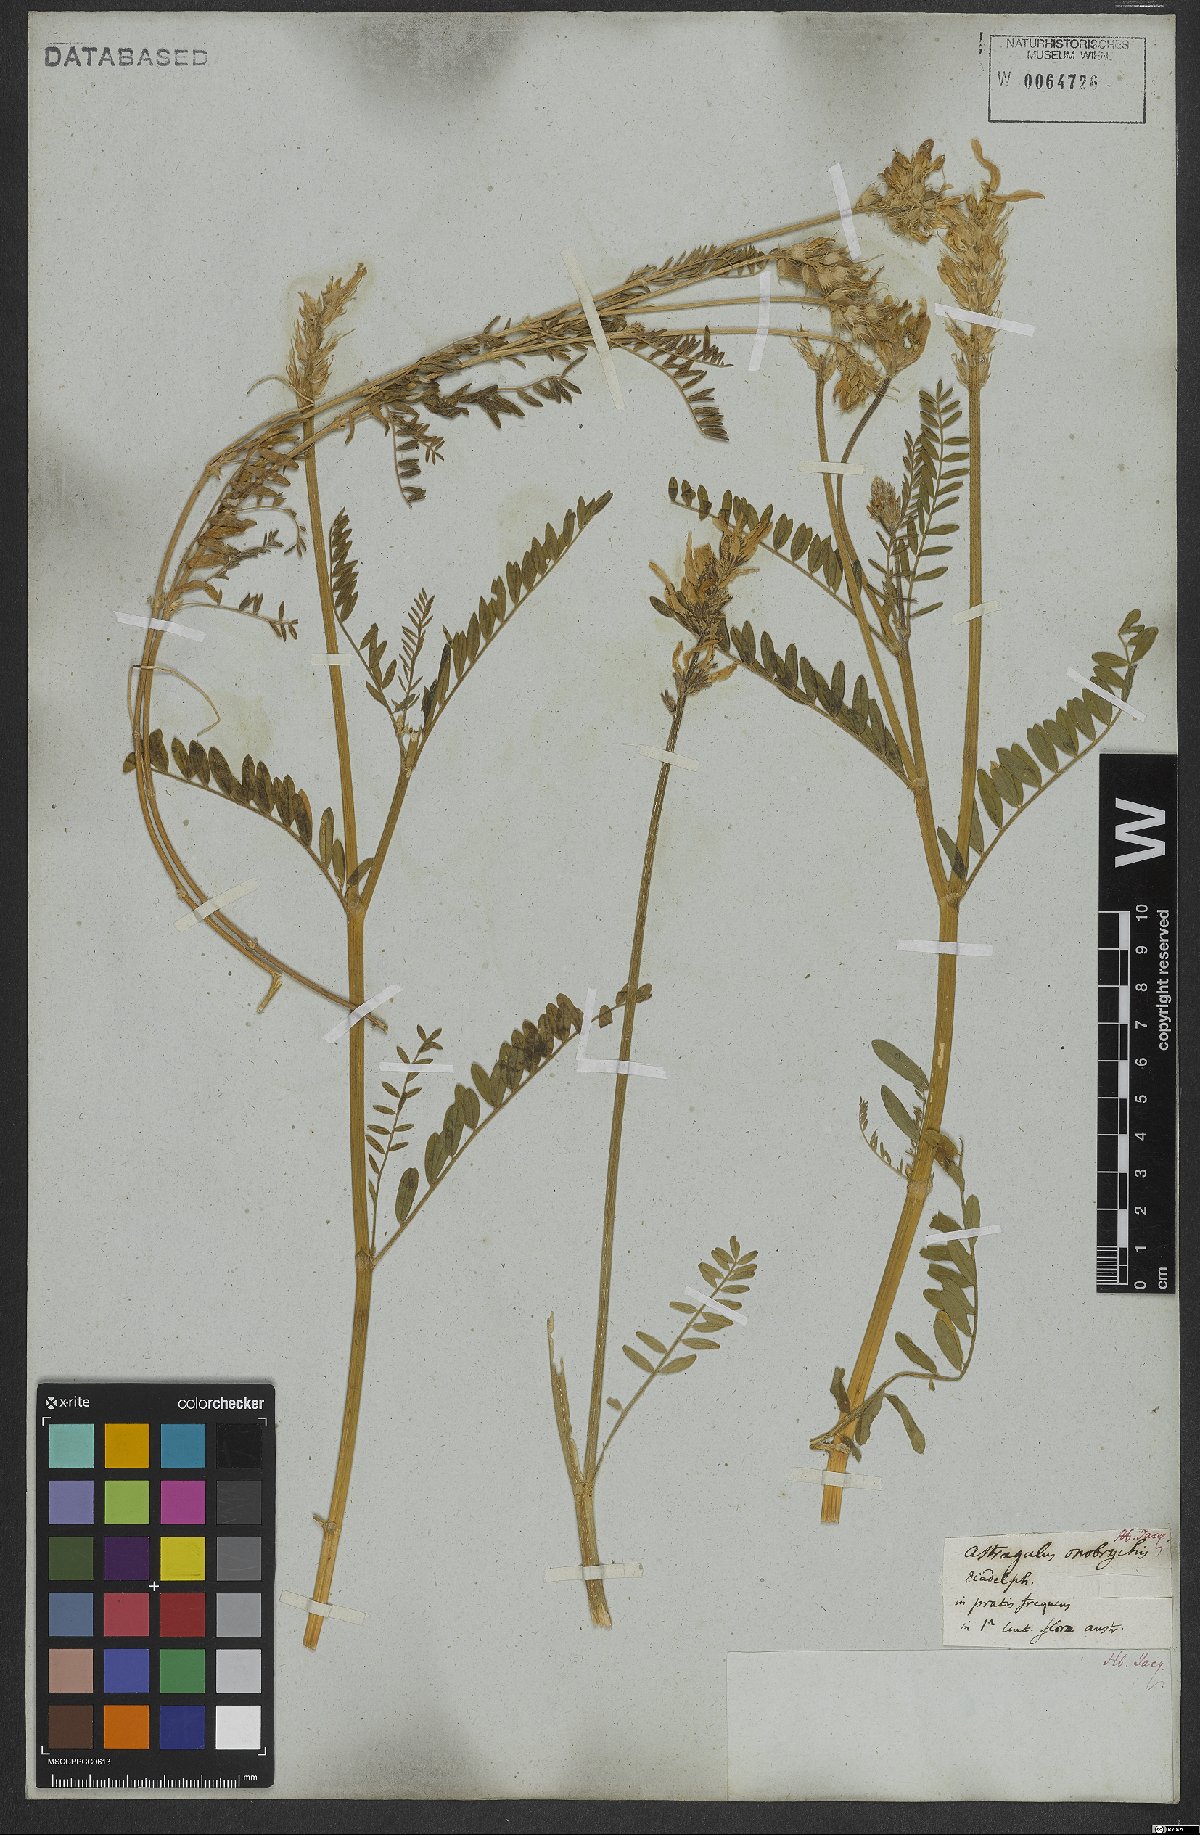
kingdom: Plantae
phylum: Tracheophyta
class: Magnoliopsida
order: Fabales
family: Fabaceae
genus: Astragalus
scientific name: Astragalus onobrychis
